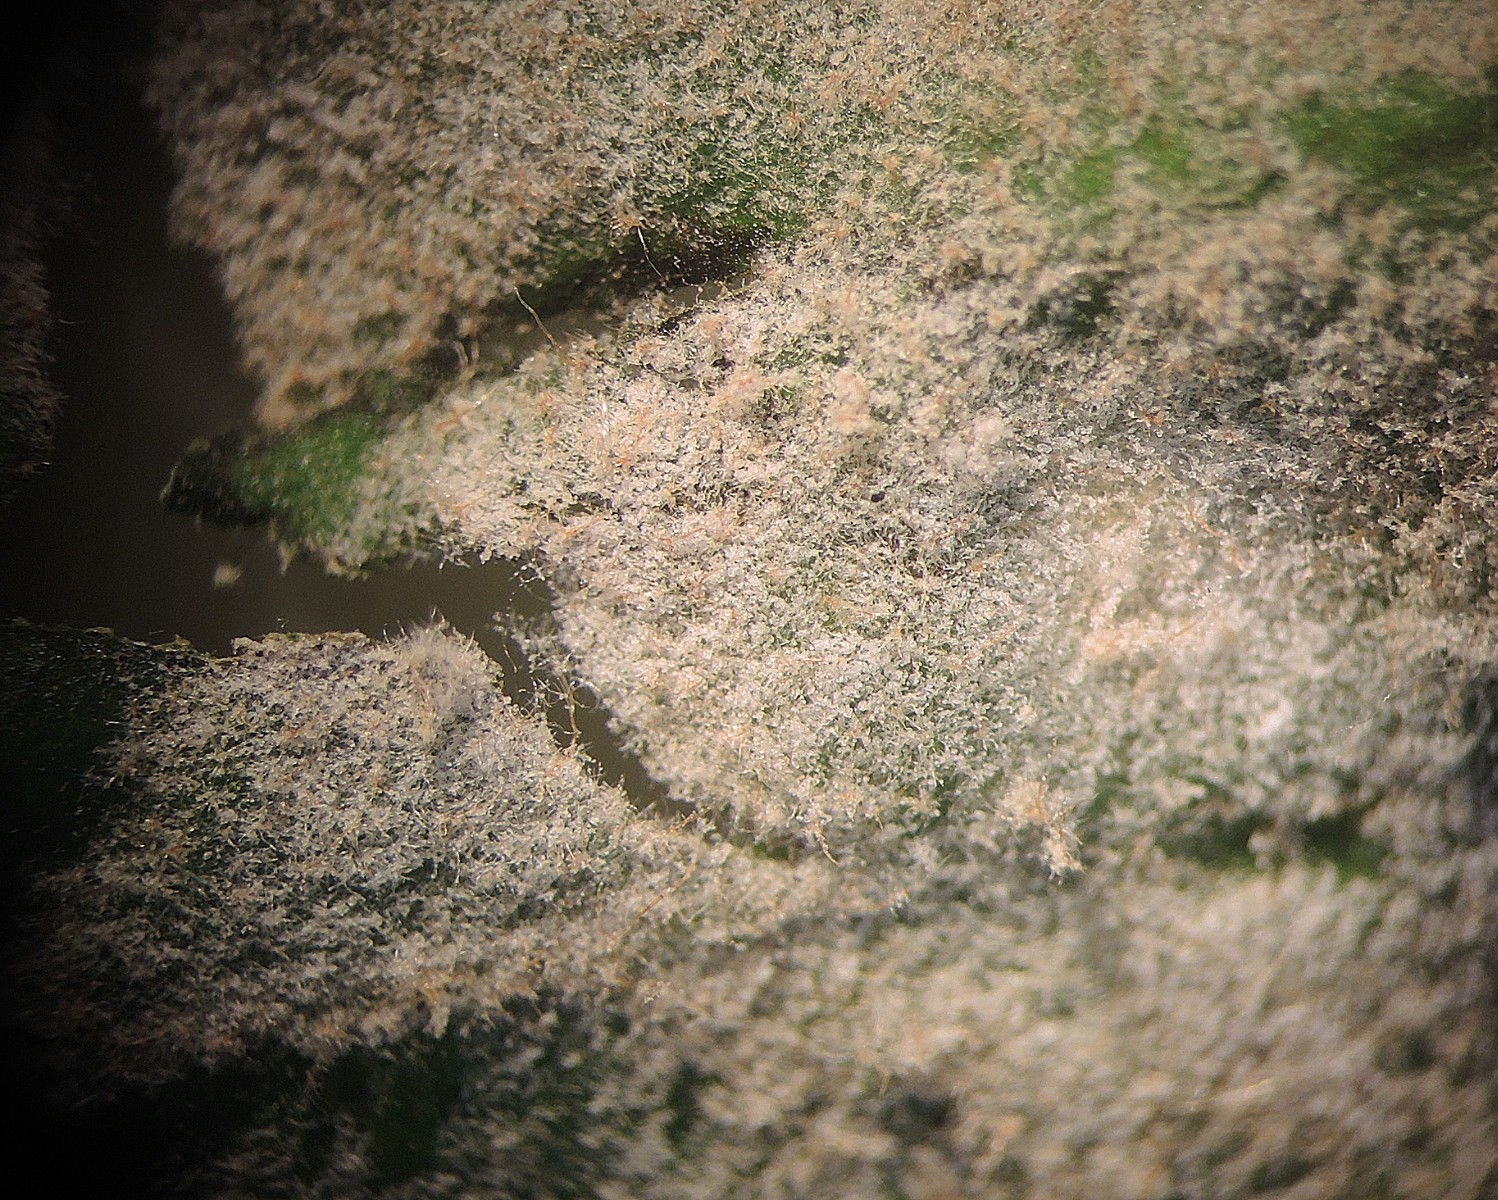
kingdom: Fungi
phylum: Ascomycota
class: Leotiomycetes
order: Helotiales
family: Erysiphaceae
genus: Erysiphe
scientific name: Erysiphe platani
